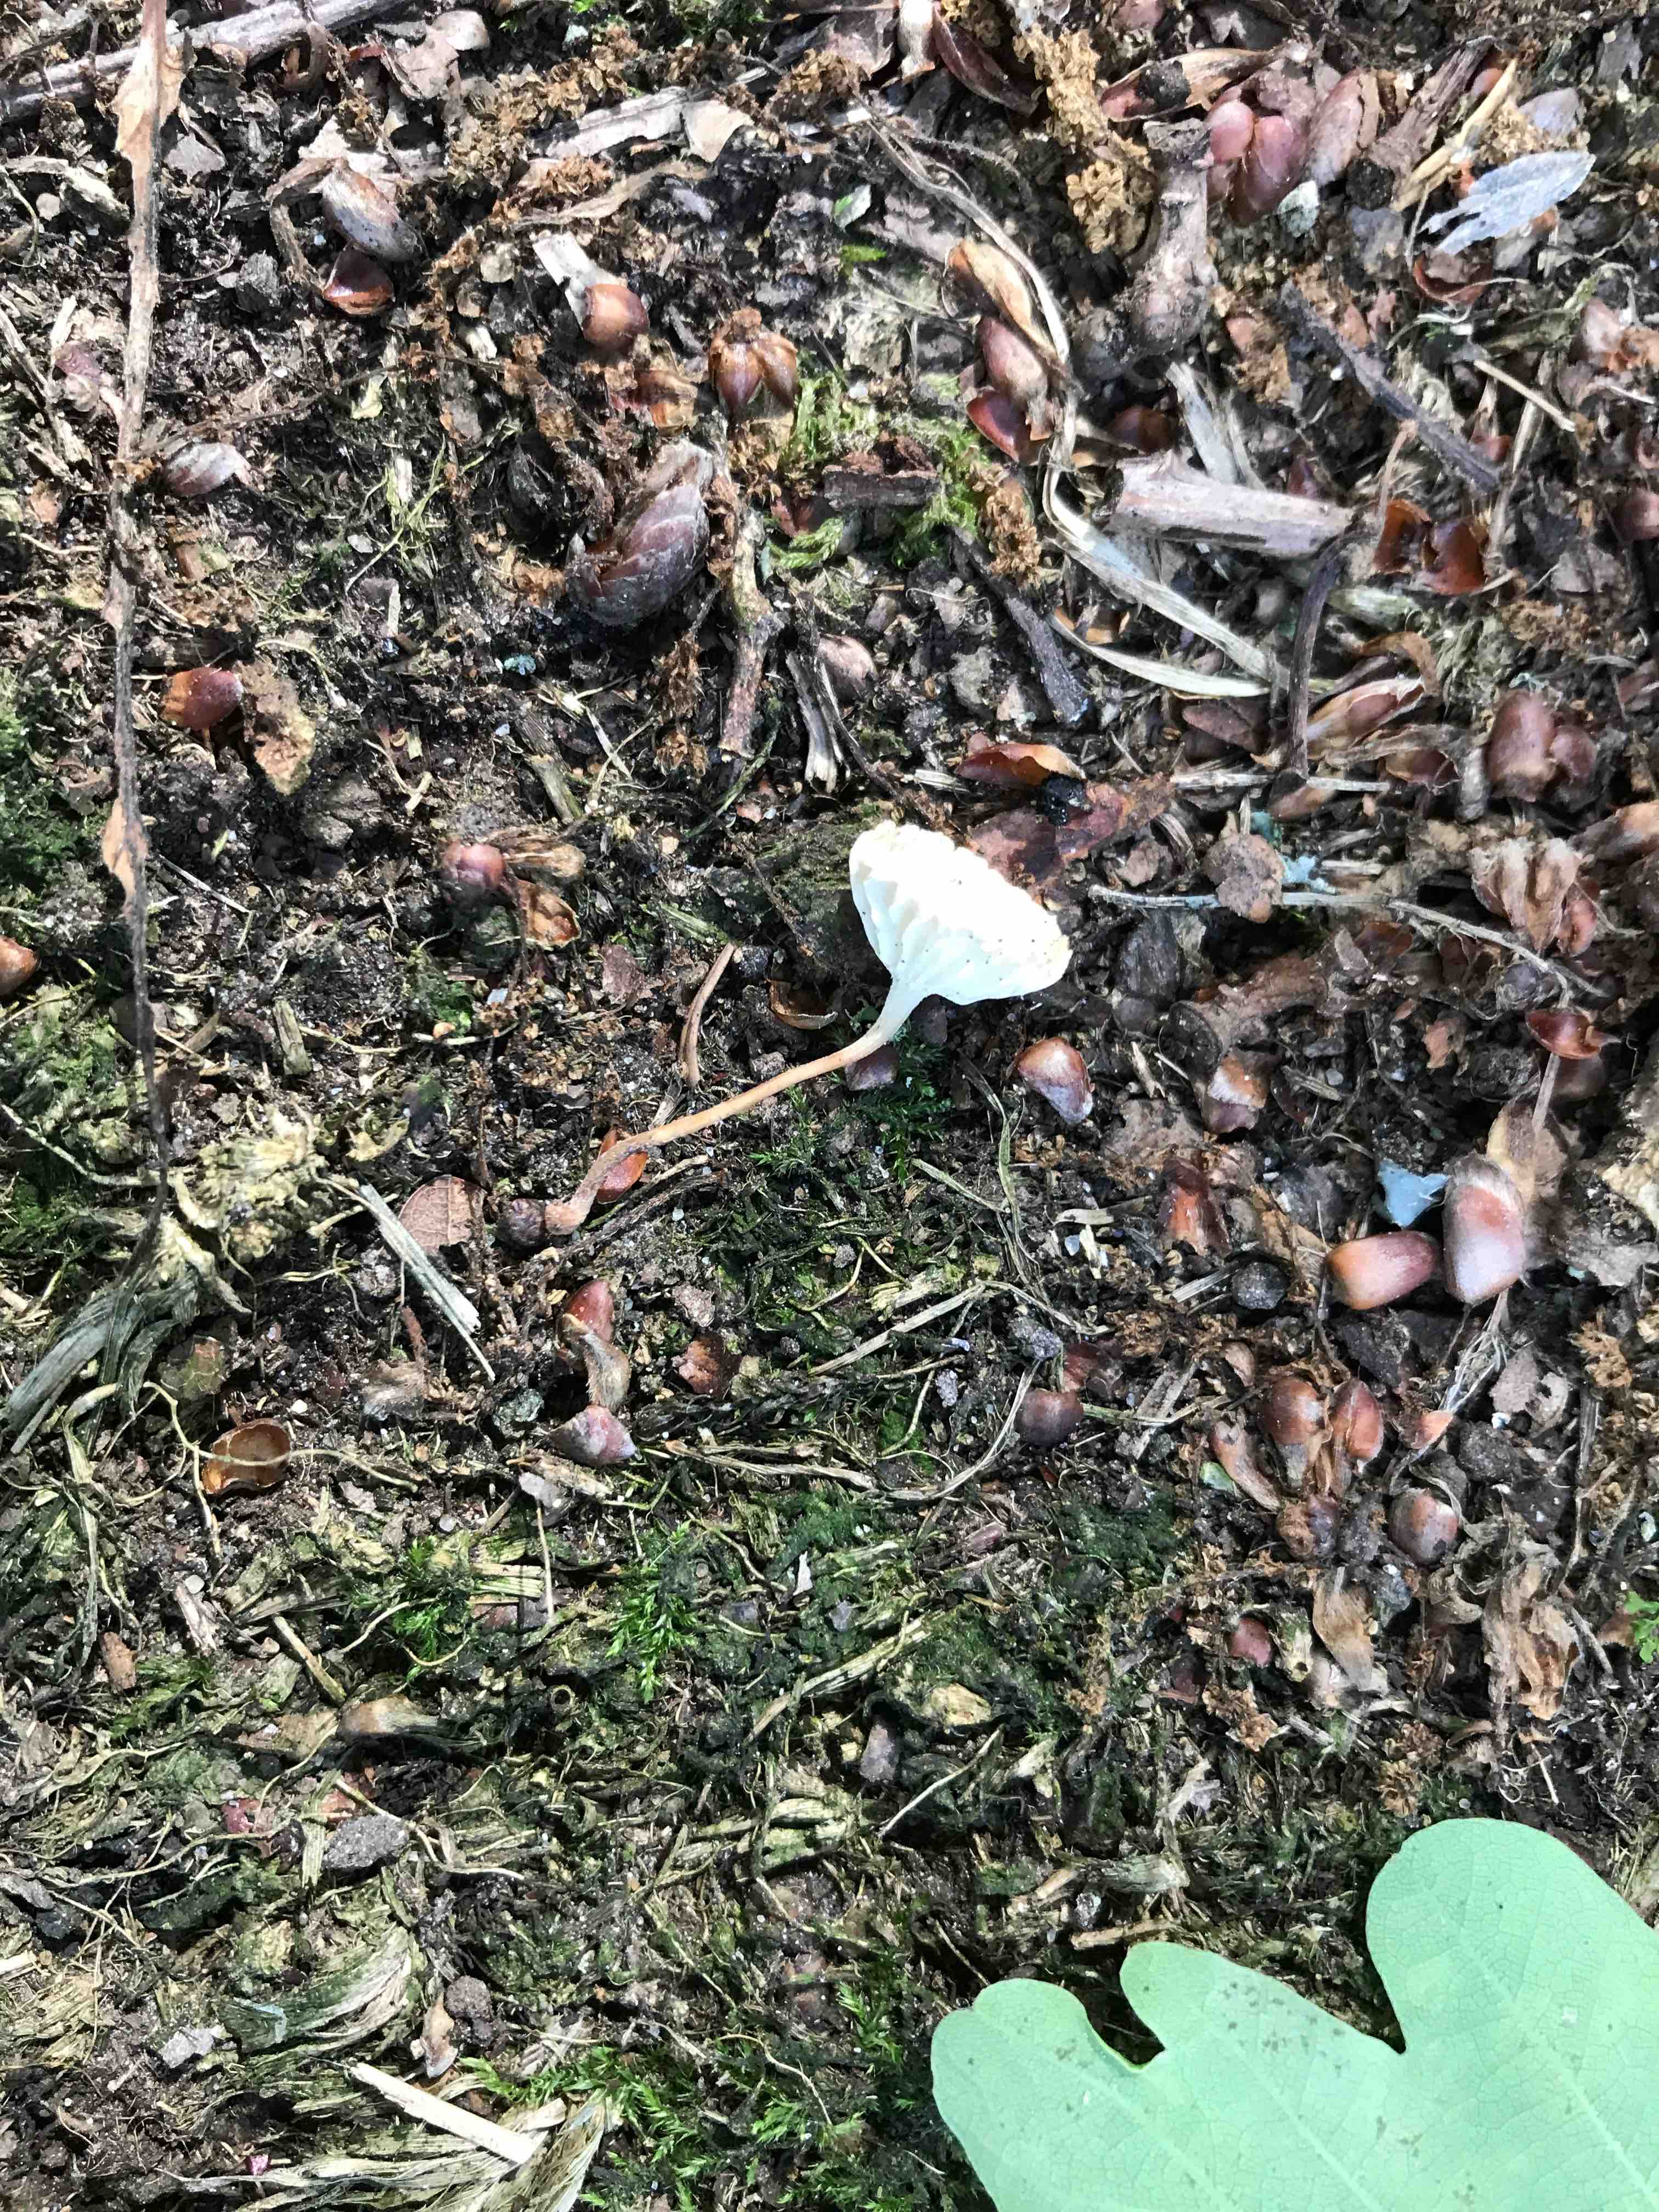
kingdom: Fungi
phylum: Basidiomycota
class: Agaricomycetes
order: Agaricales
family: Omphalotaceae
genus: Collybiopsis
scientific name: Collybiopsis vaillantii
